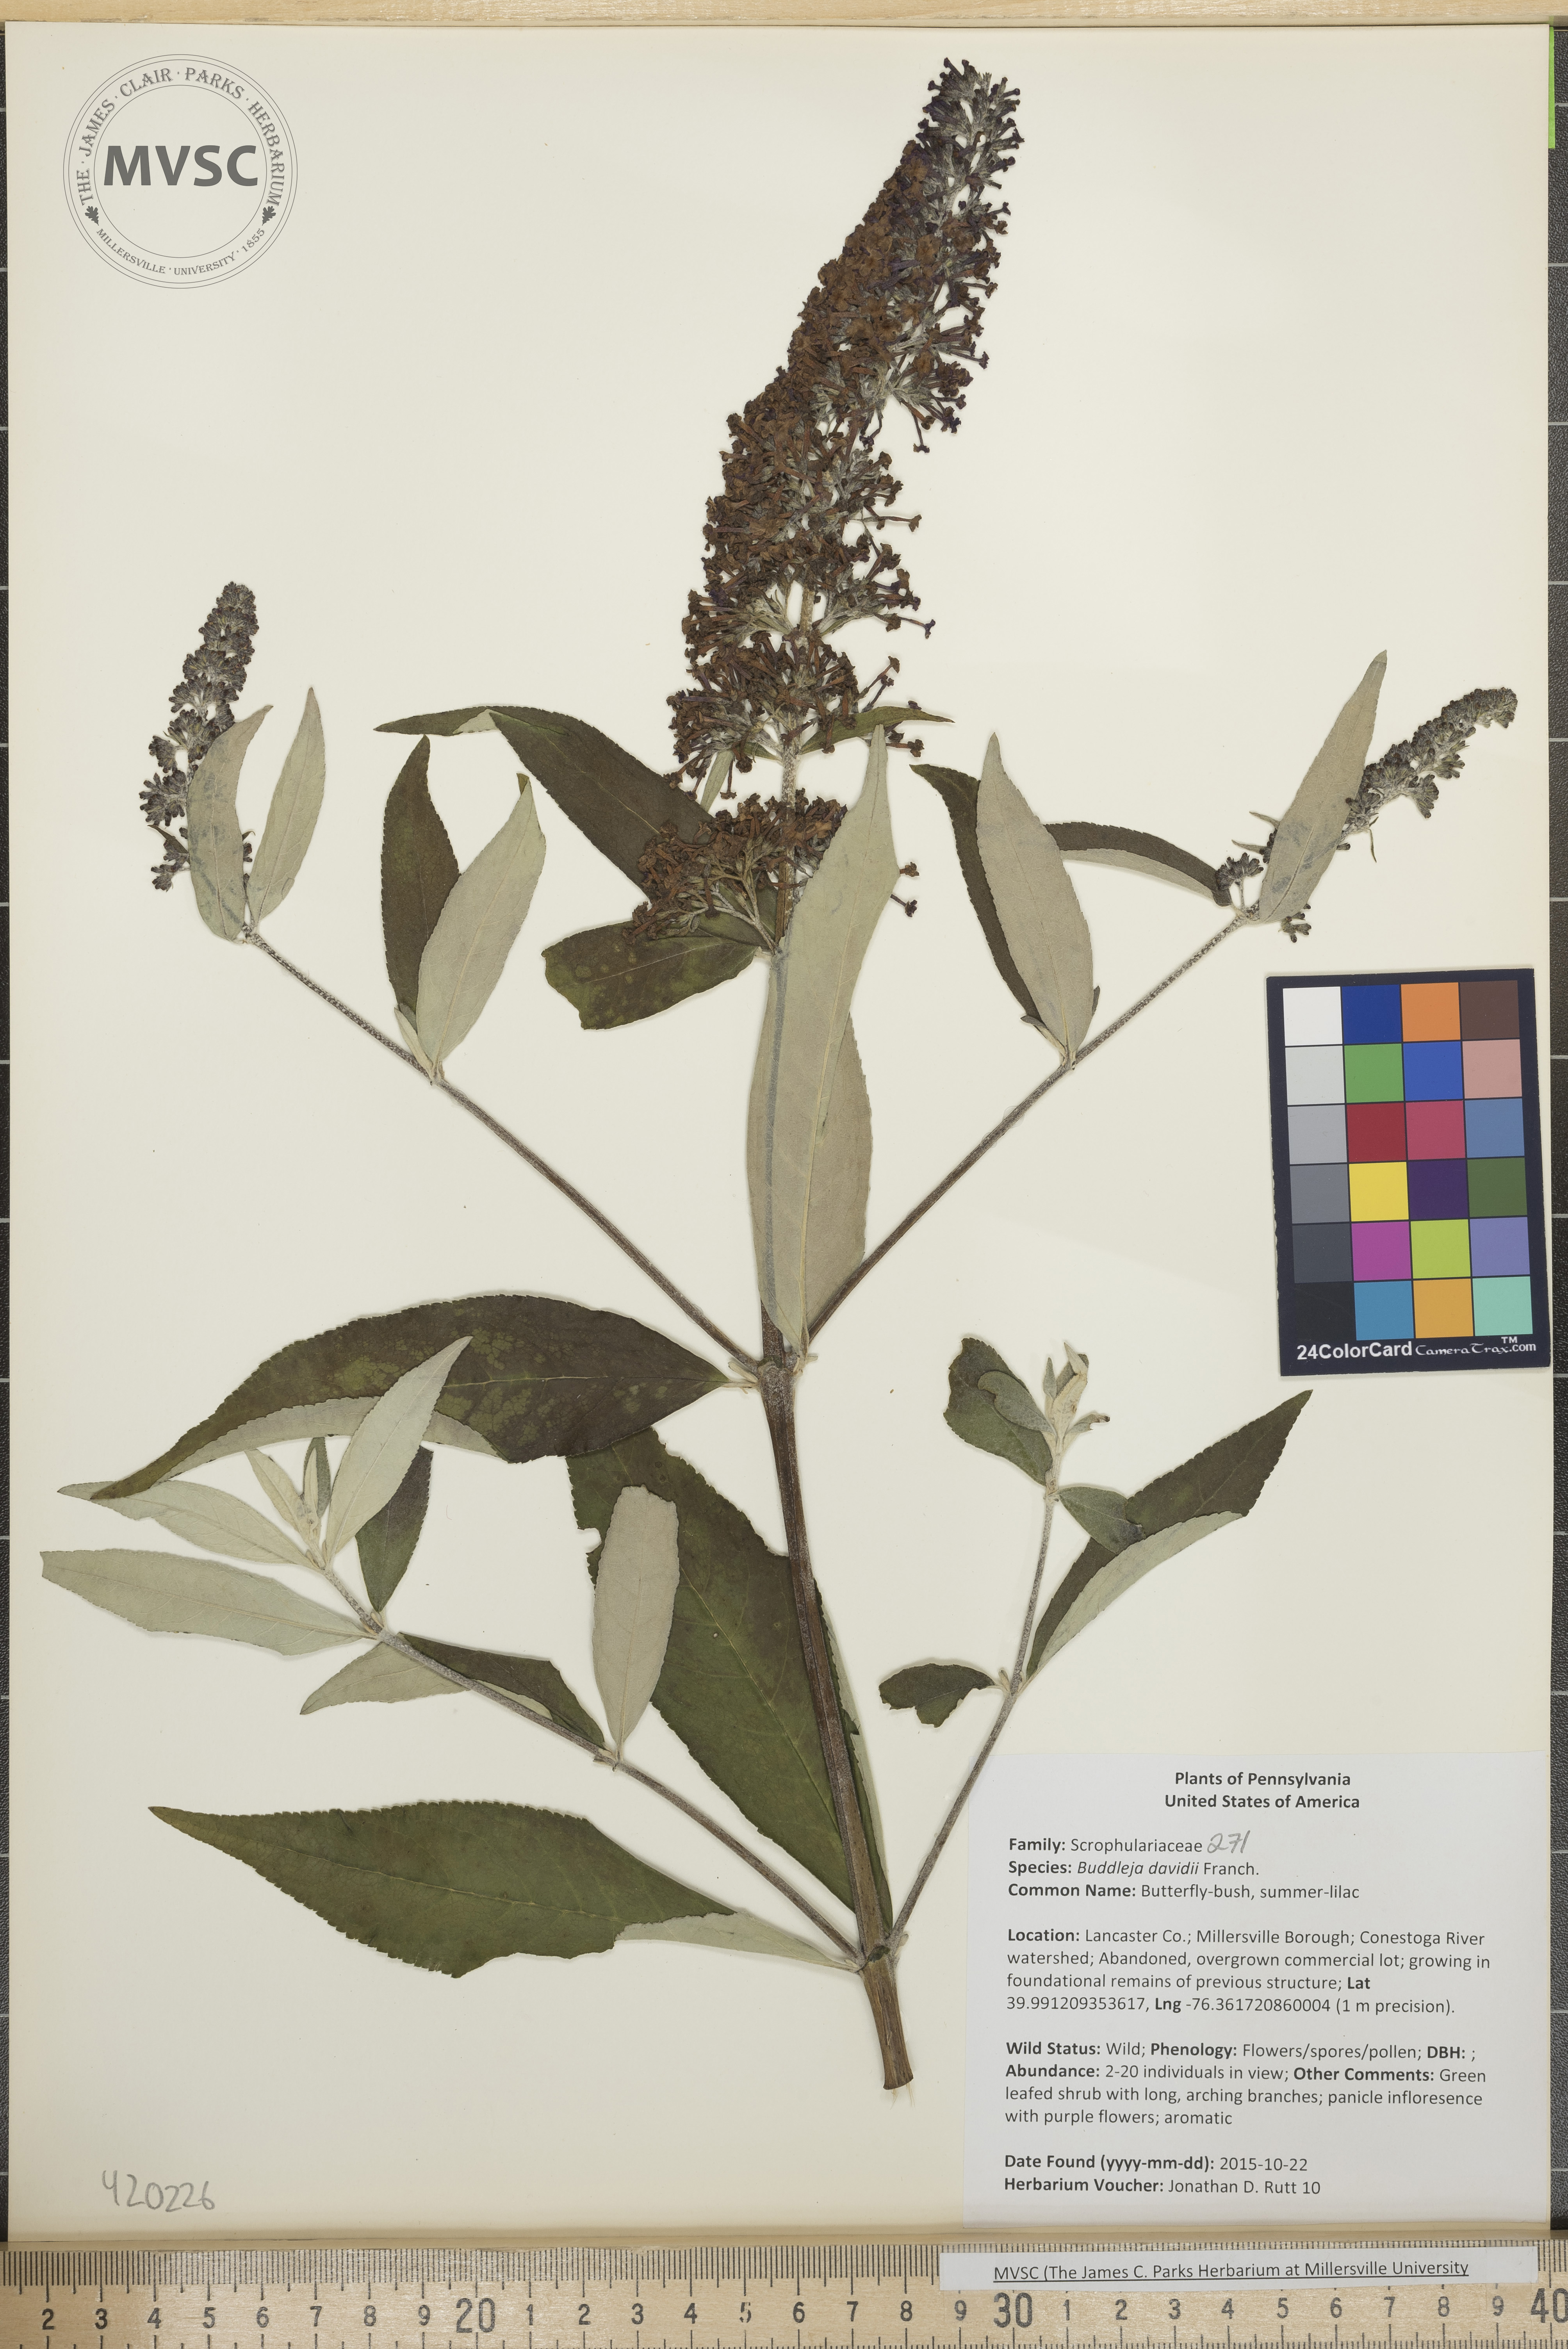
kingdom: Plantae
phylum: Tracheophyta
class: Magnoliopsida
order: Lamiales
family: Scrophulariaceae
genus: Buddleja
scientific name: Buddleja davidii
